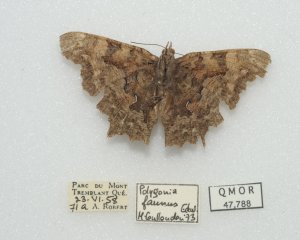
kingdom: Animalia
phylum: Arthropoda
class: Insecta
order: Lepidoptera
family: Nymphalidae
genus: Polygonia
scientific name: Polygonia faunus
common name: Green Comma
